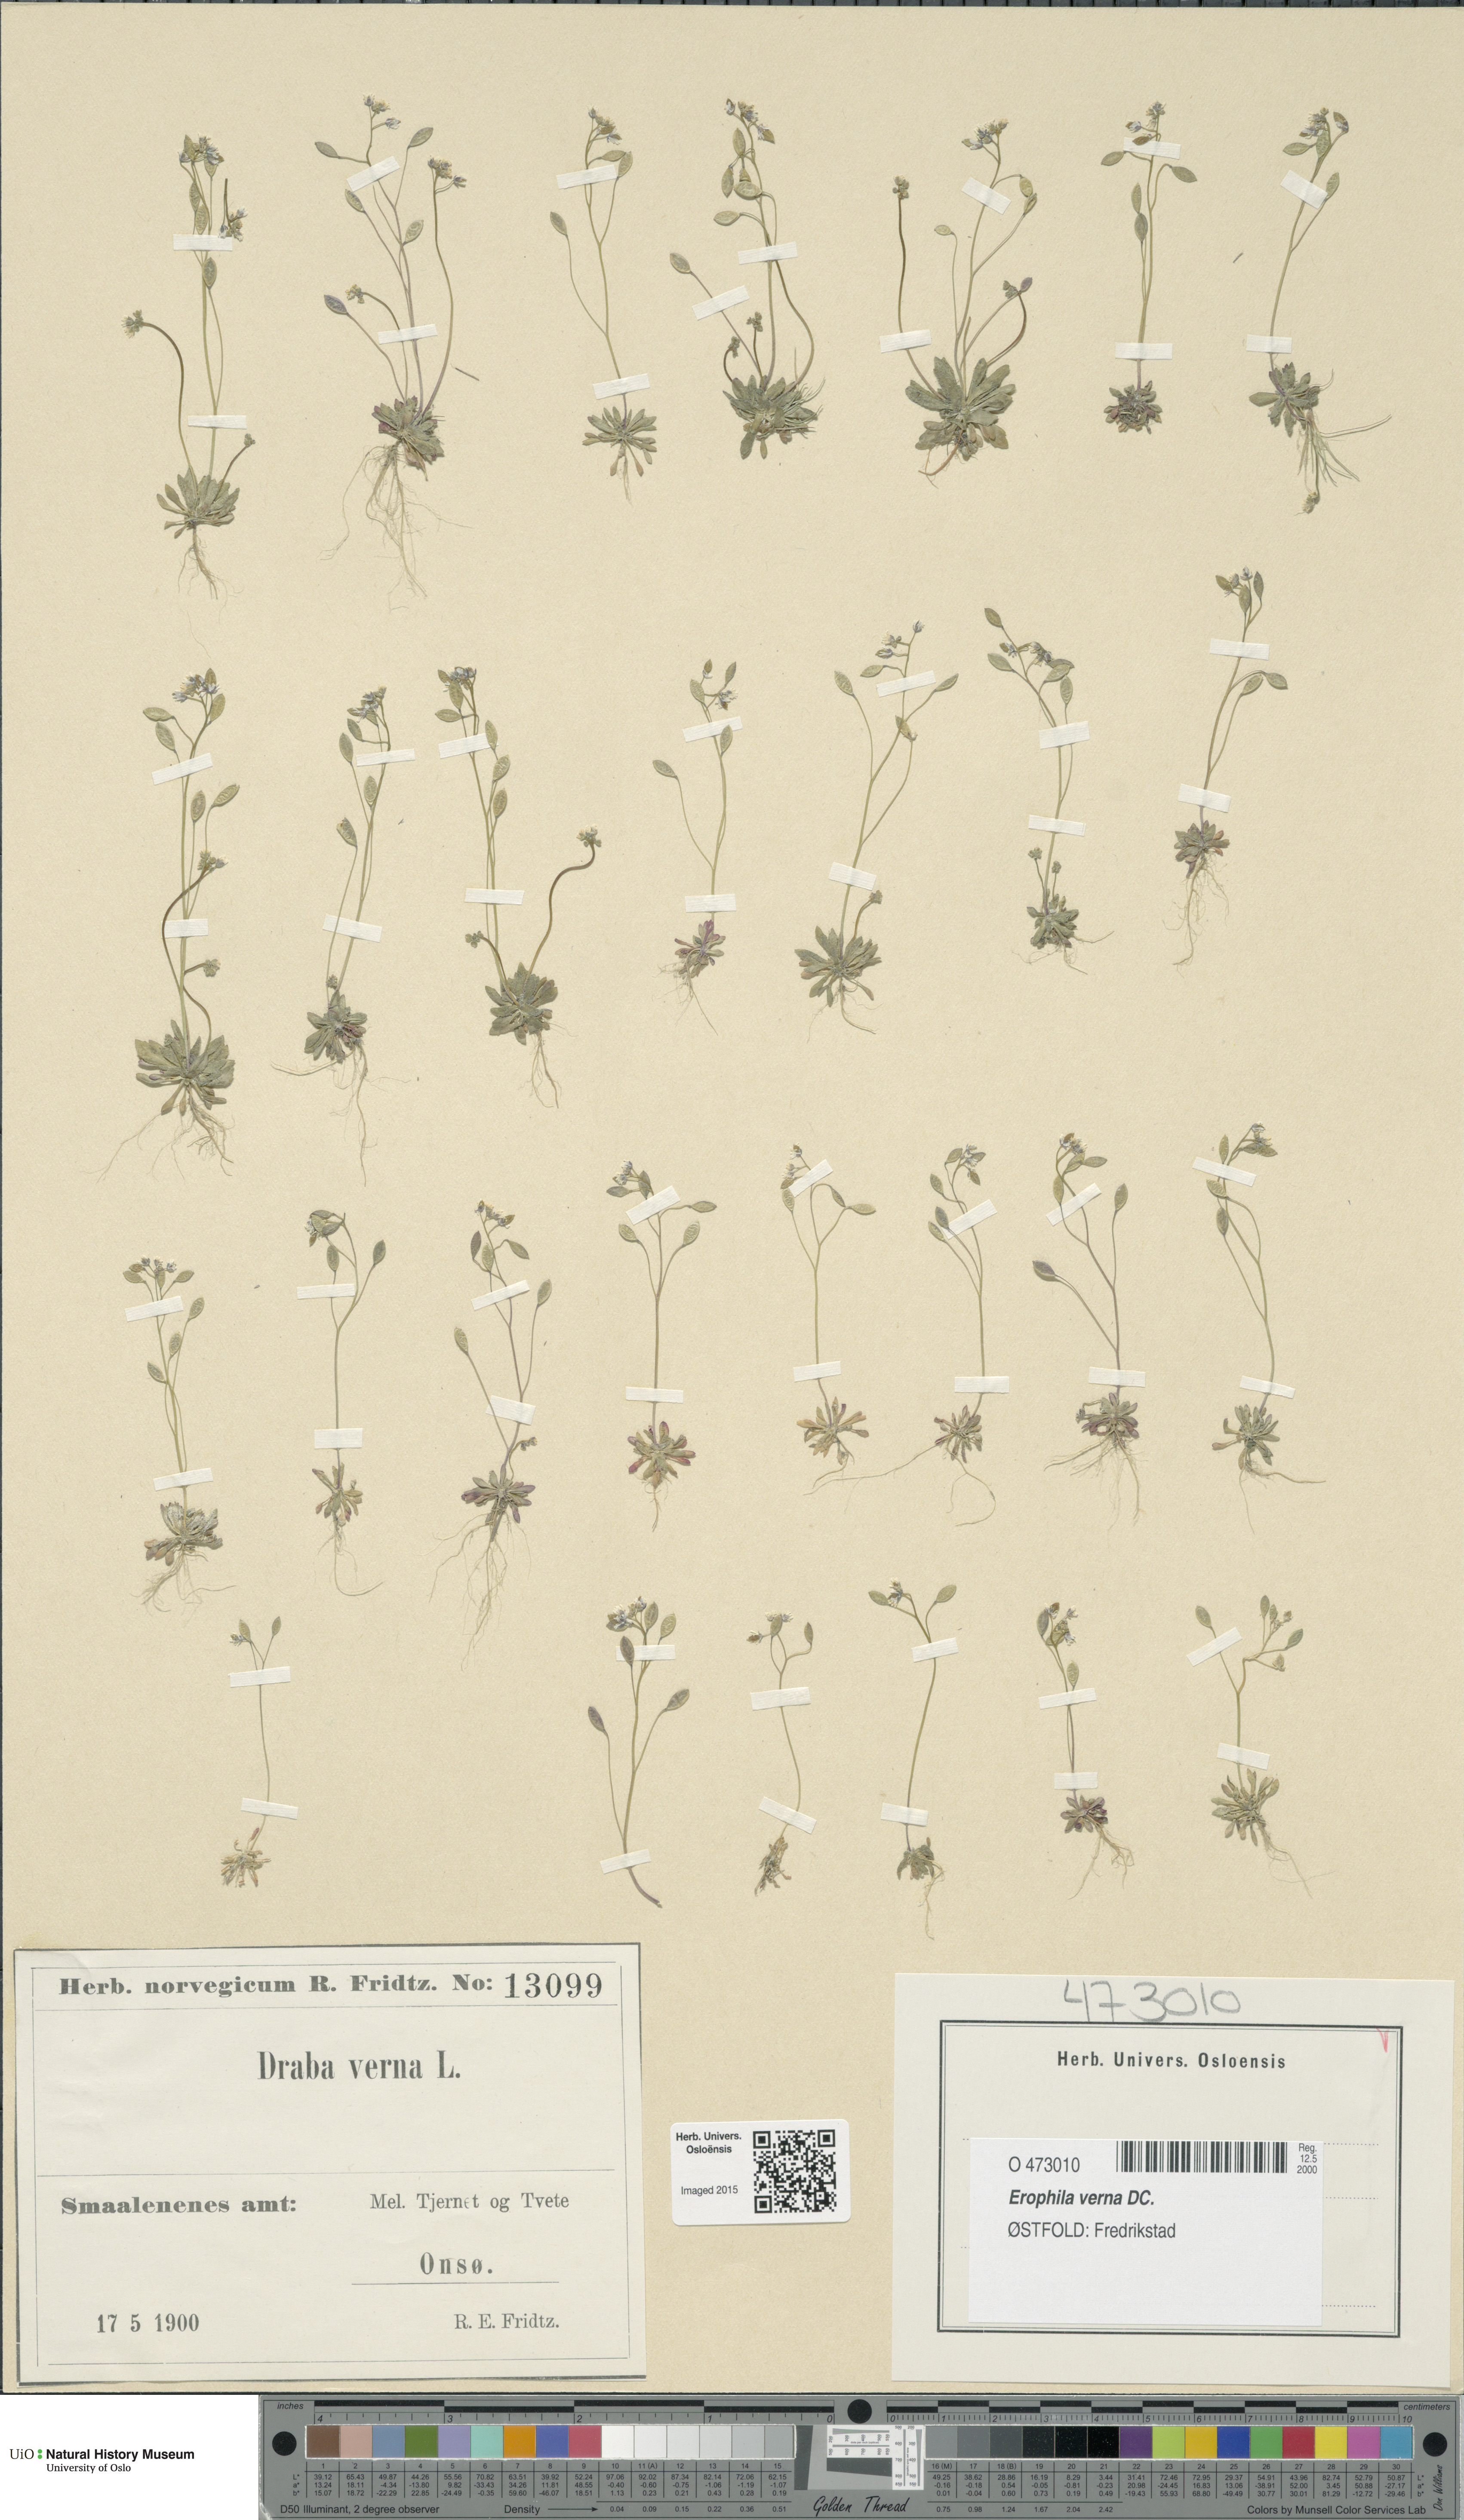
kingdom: Plantae
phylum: Tracheophyta
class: Magnoliopsida
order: Brassicales
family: Brassicaceae
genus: Draba
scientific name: Draba verna
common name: Spring draba
